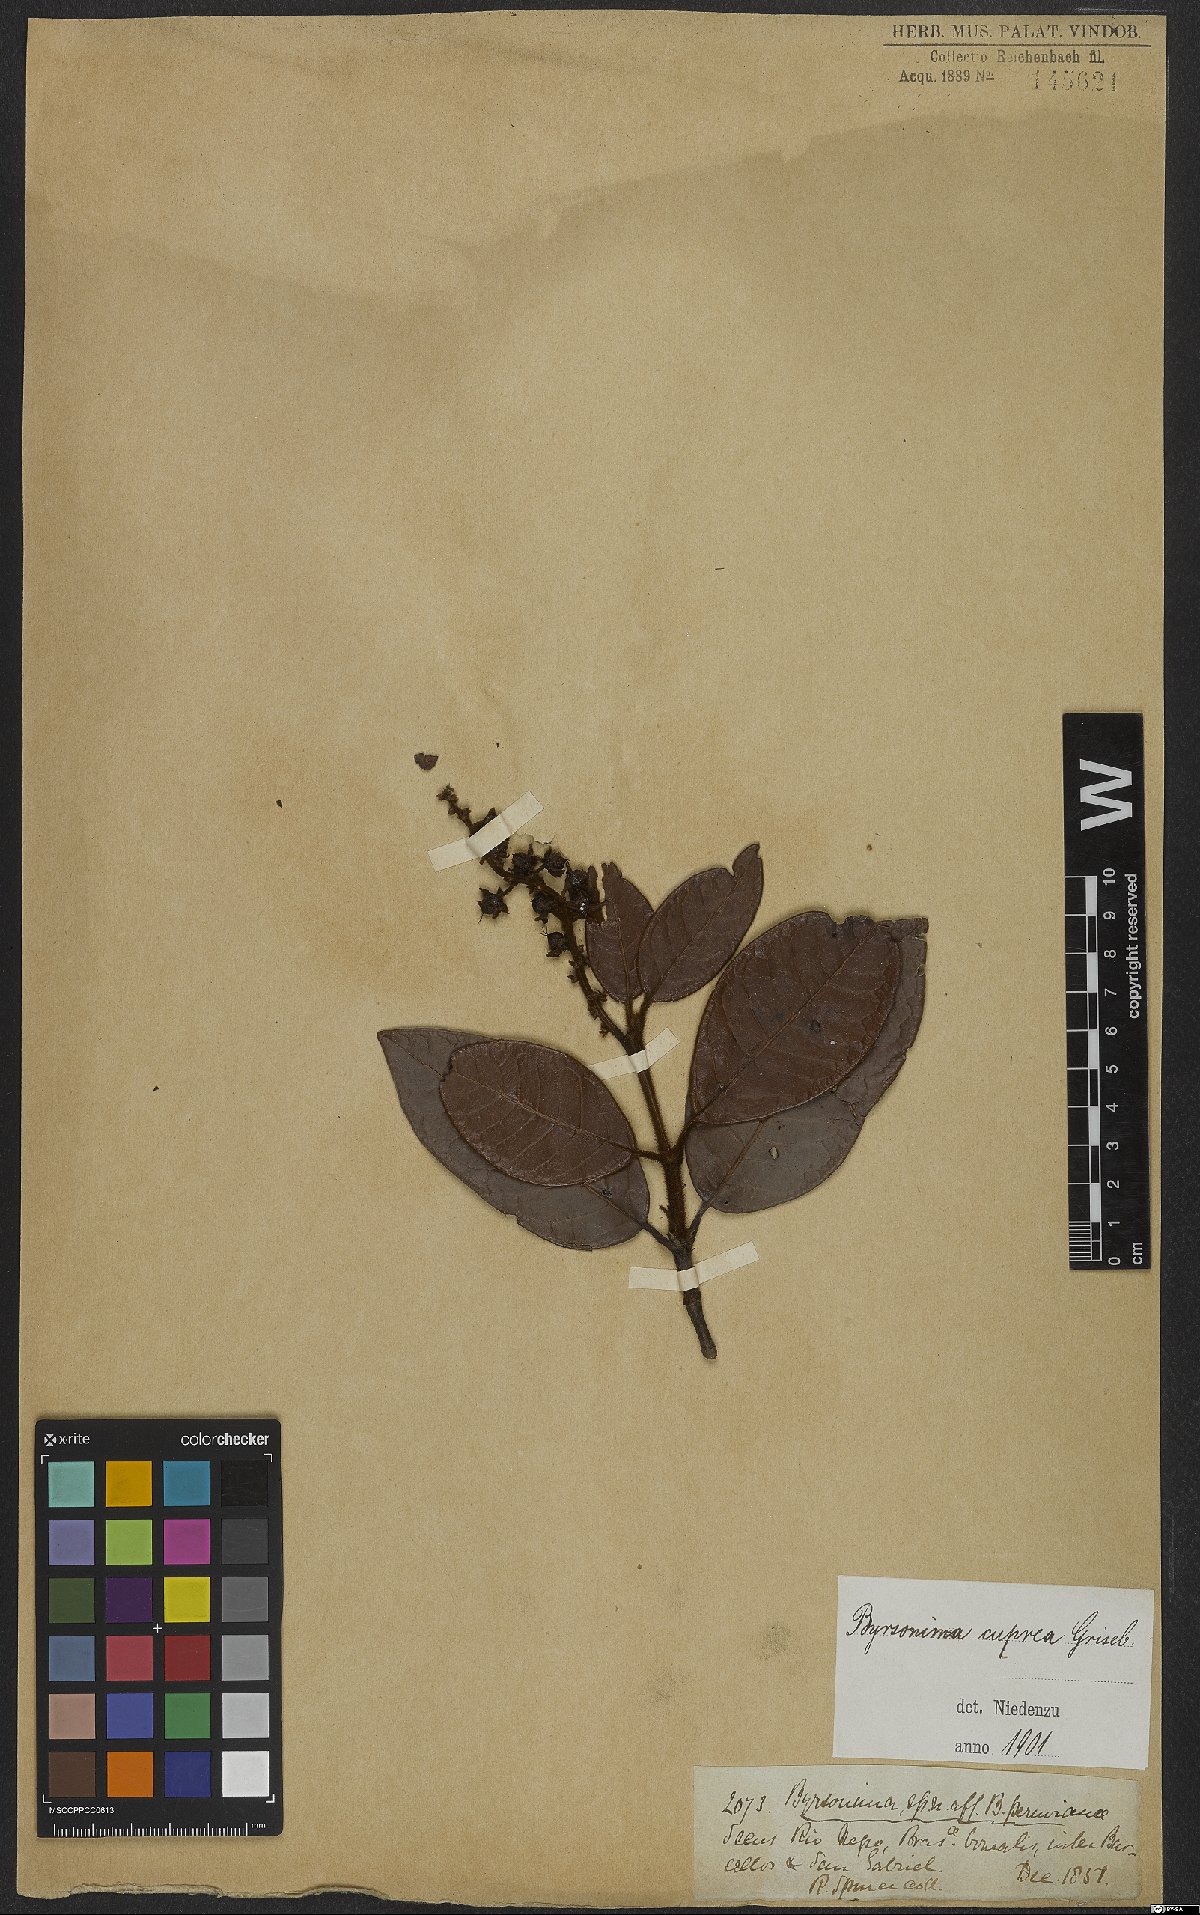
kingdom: Plantae
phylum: Tracheophyta
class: Magnoliopsida
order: Malpighiales
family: Malpighiaceae
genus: Byrsonima
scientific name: Byrsonima cuprea
